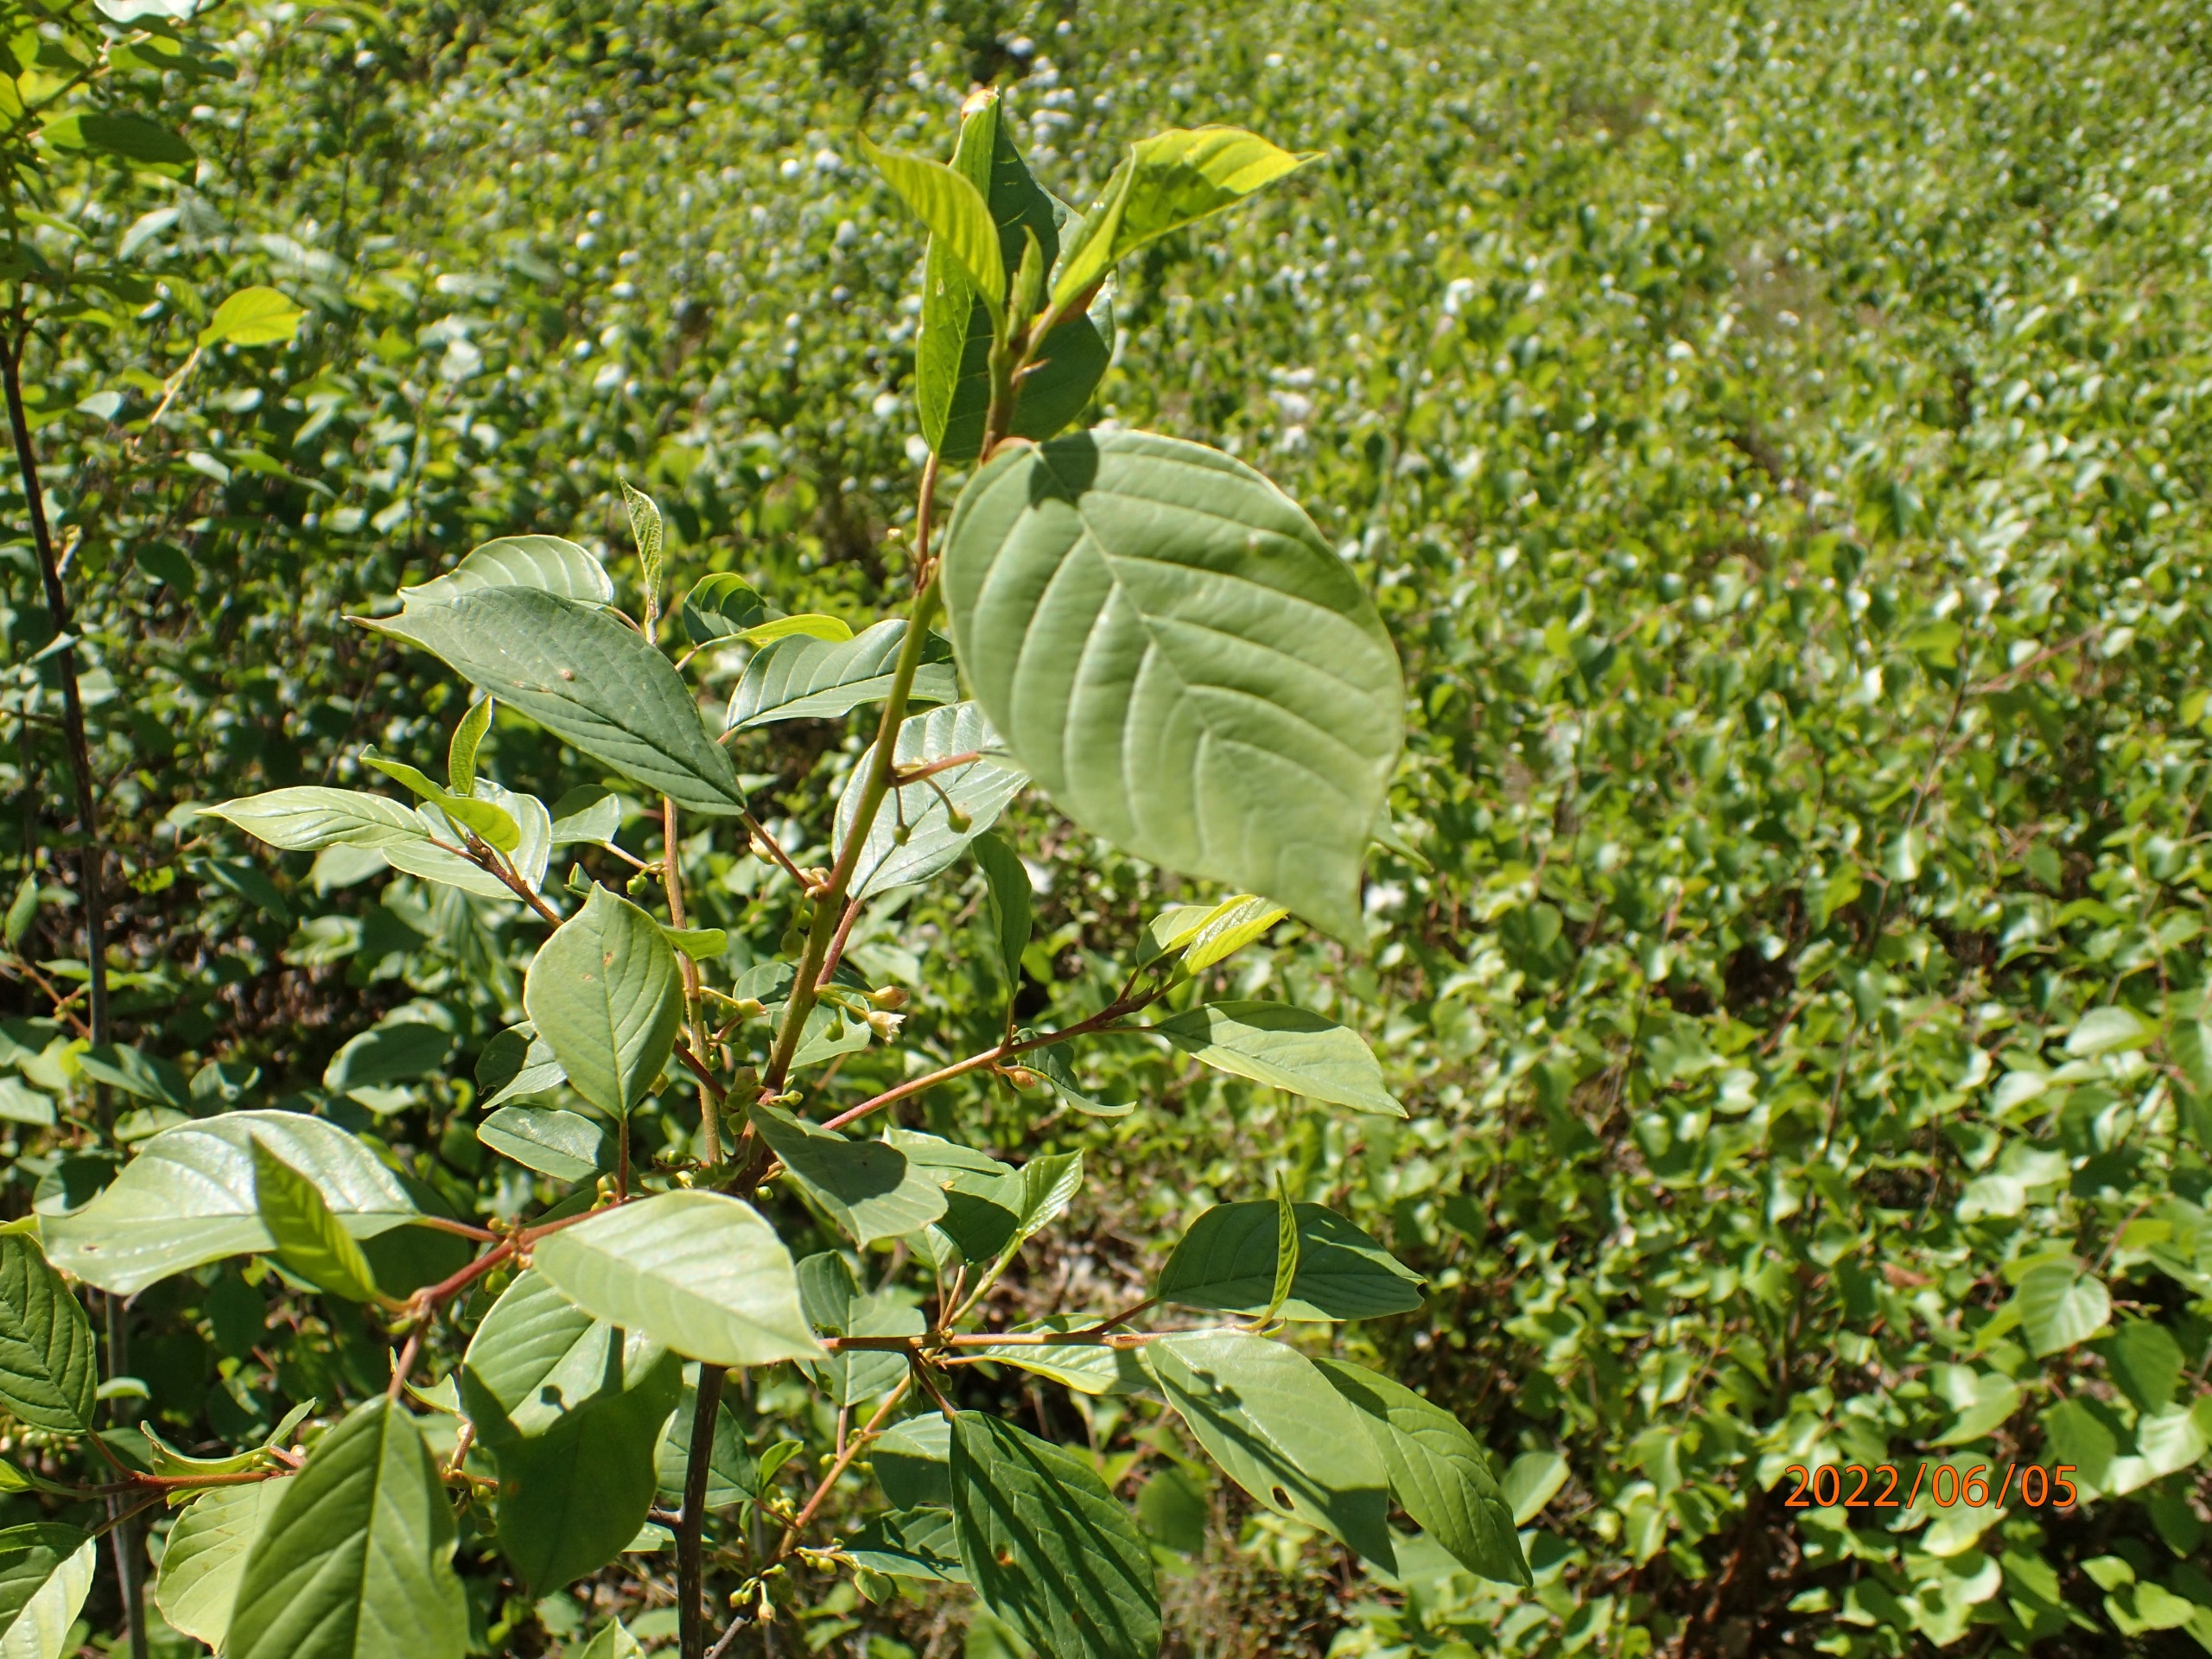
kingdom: Plantae
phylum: Tracheophyta
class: Magnoliopsida
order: Rosales
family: Rhamnaceae
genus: Frangula
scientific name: Frangula alnus
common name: Tørst
